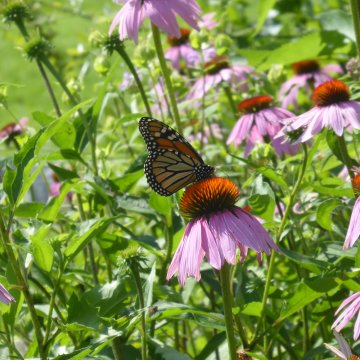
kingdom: Animalia
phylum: Arthropoda
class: Insecta
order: Lepidoptera
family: Nymphalidae
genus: Danaus
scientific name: Danaus plexippus
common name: Monarch
